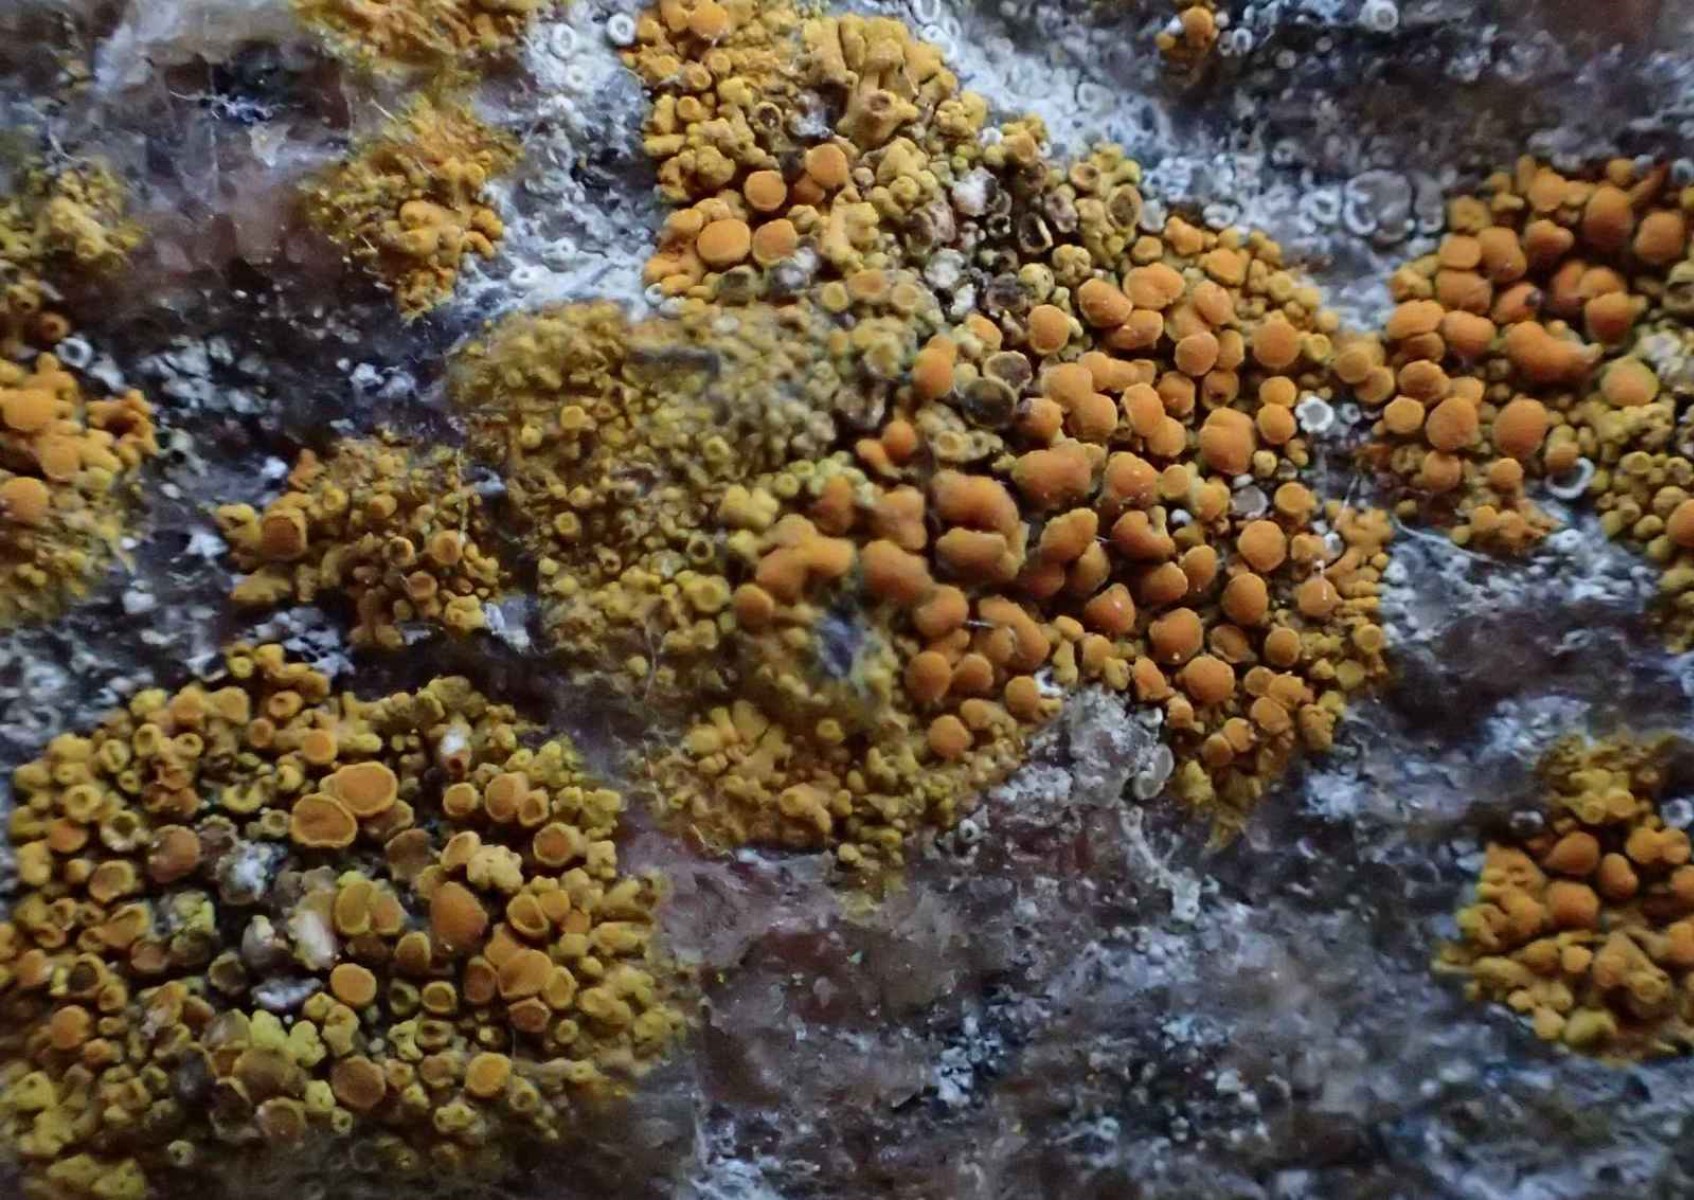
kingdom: Fungi
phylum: Ascomycota
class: Lecanoromycetes
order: Teloschistales
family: Teloschistaceae
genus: Calogaya
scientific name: Calogaya saxicola
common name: mur-orangelav
